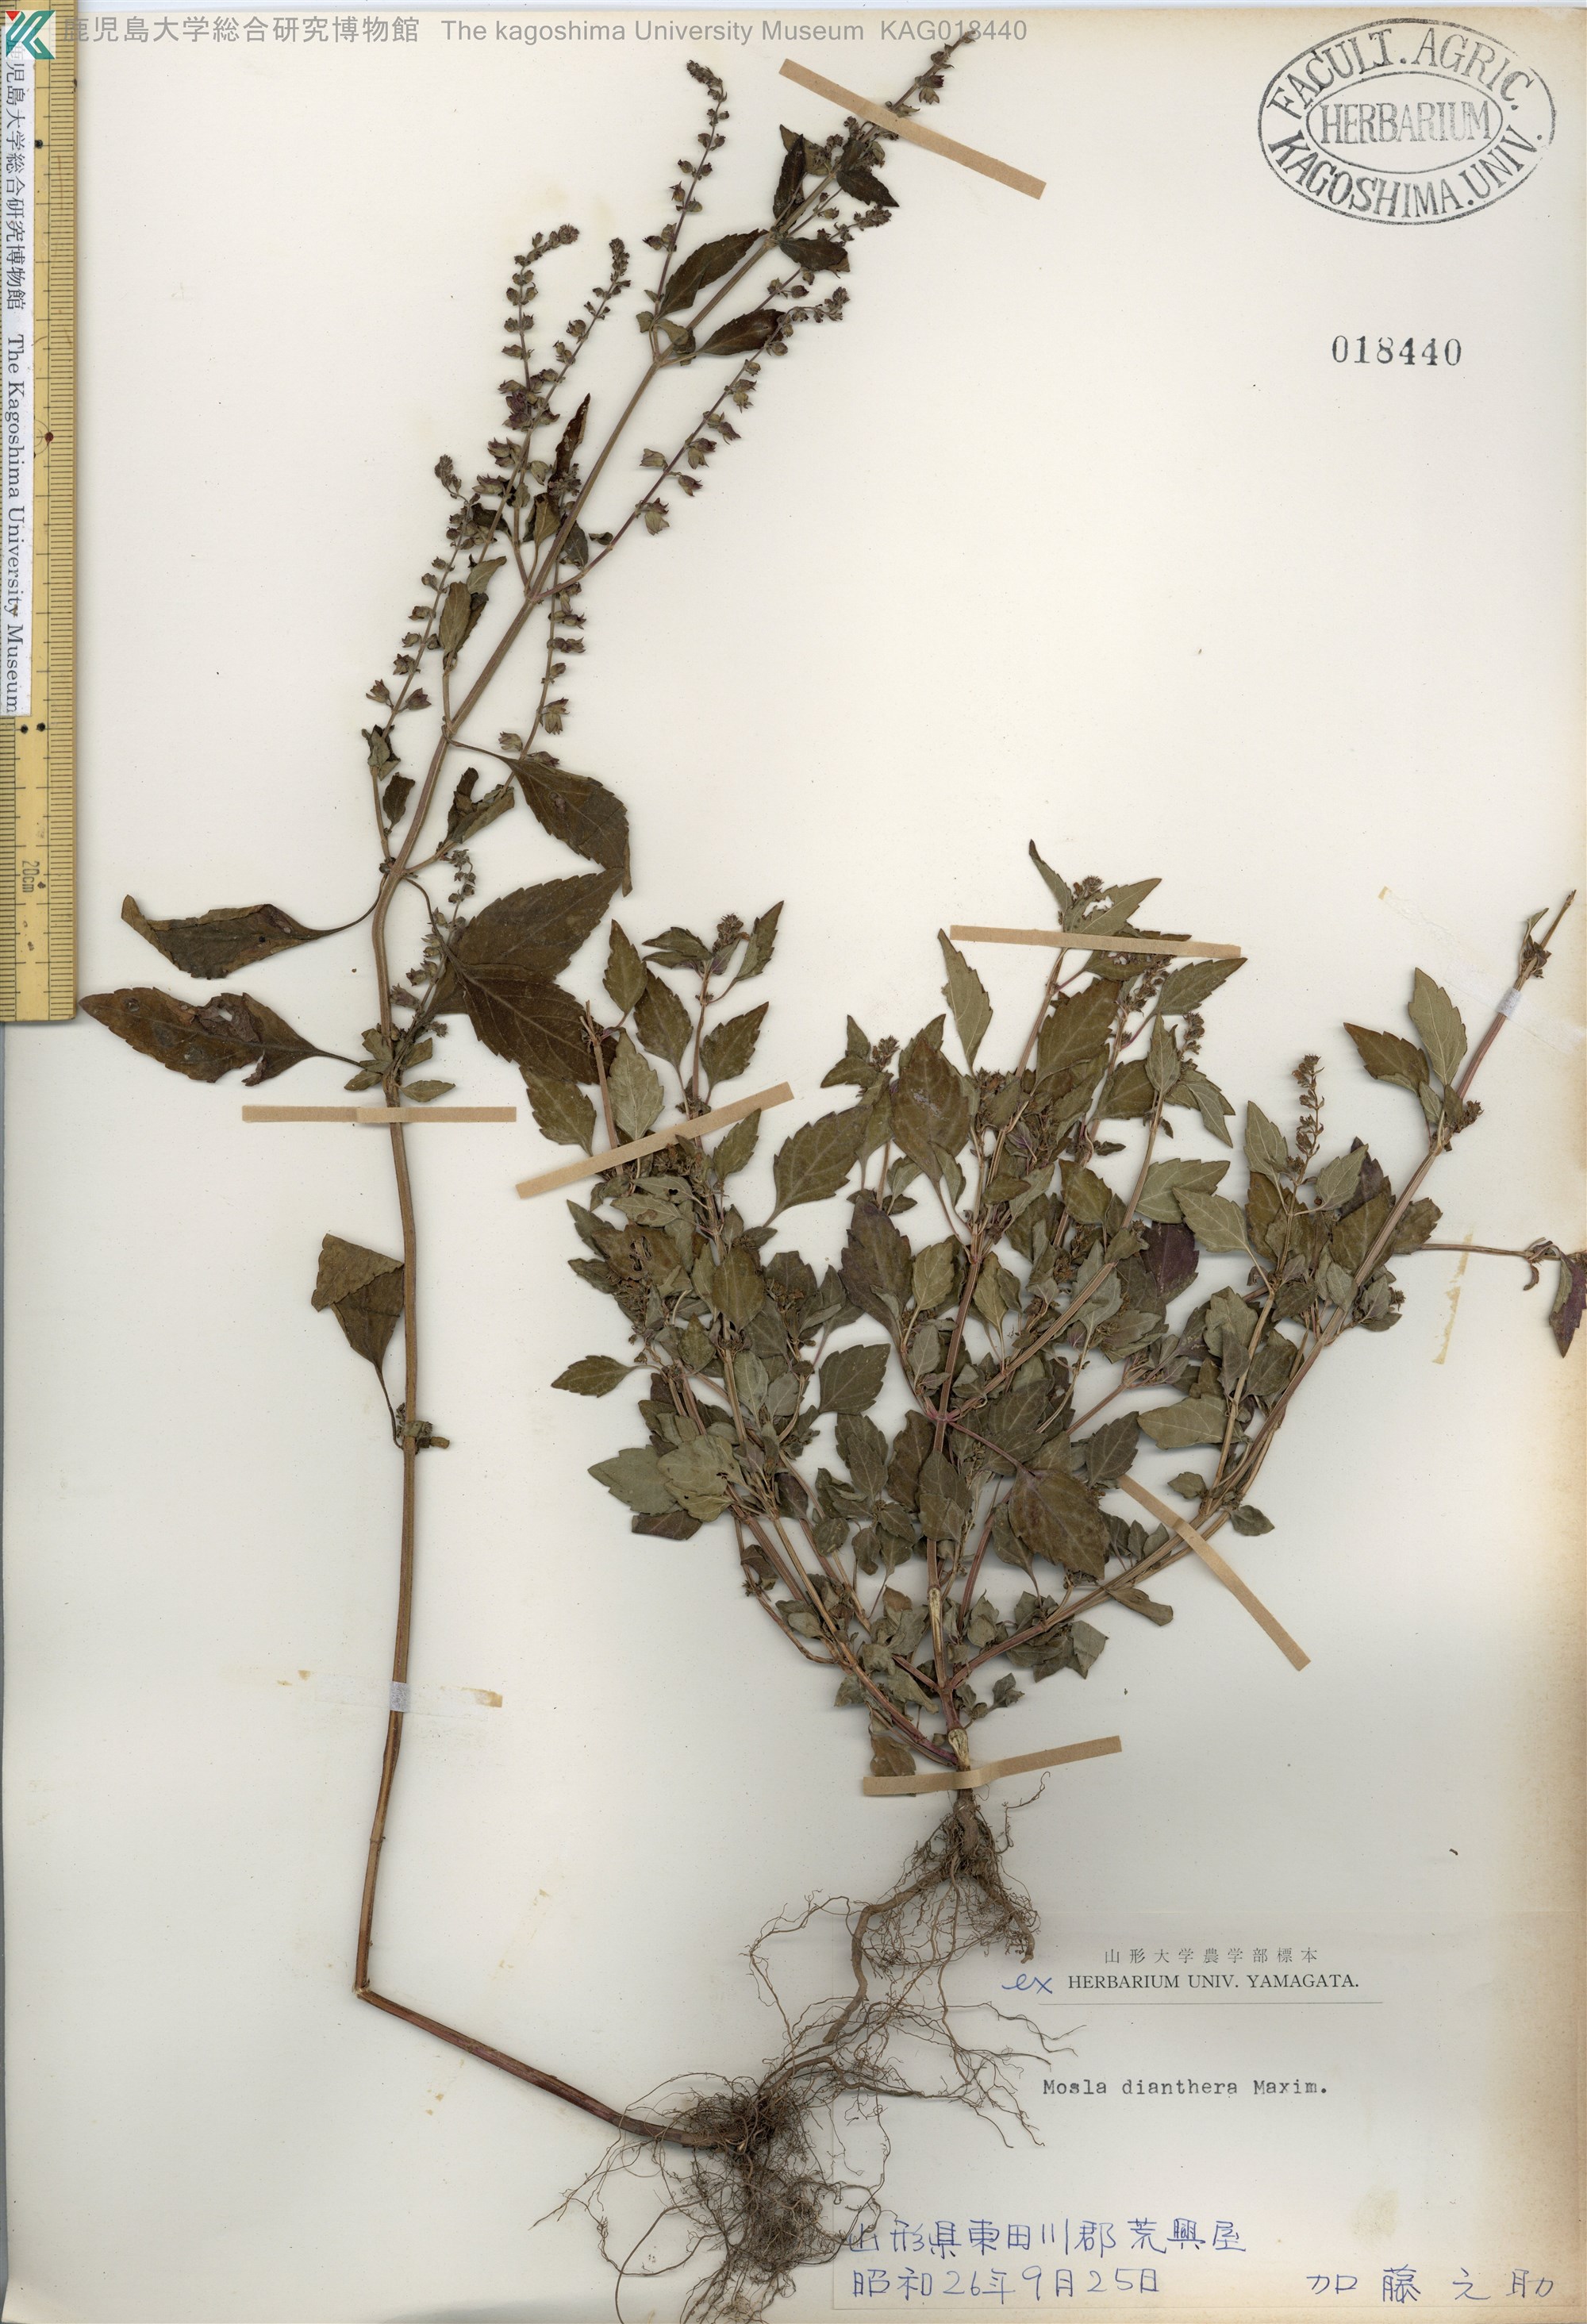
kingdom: Plantae
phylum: Tracheophyta
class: Magnoliopsida
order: Lamiales
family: Lamiaceae
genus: Mosla
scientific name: Mosla dianthera
